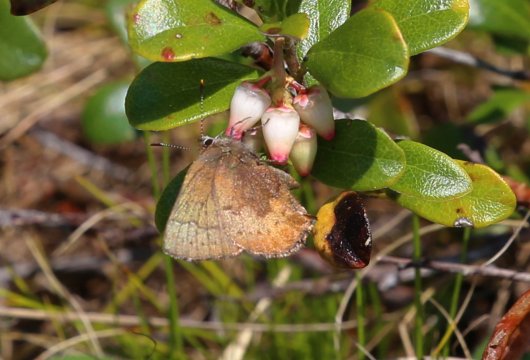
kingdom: Animalia
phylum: Arthropoda
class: Insecta
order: Lepidoptera
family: Lycaenidae
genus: Incisalia
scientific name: Incisalia irioides
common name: Brown Elfin
